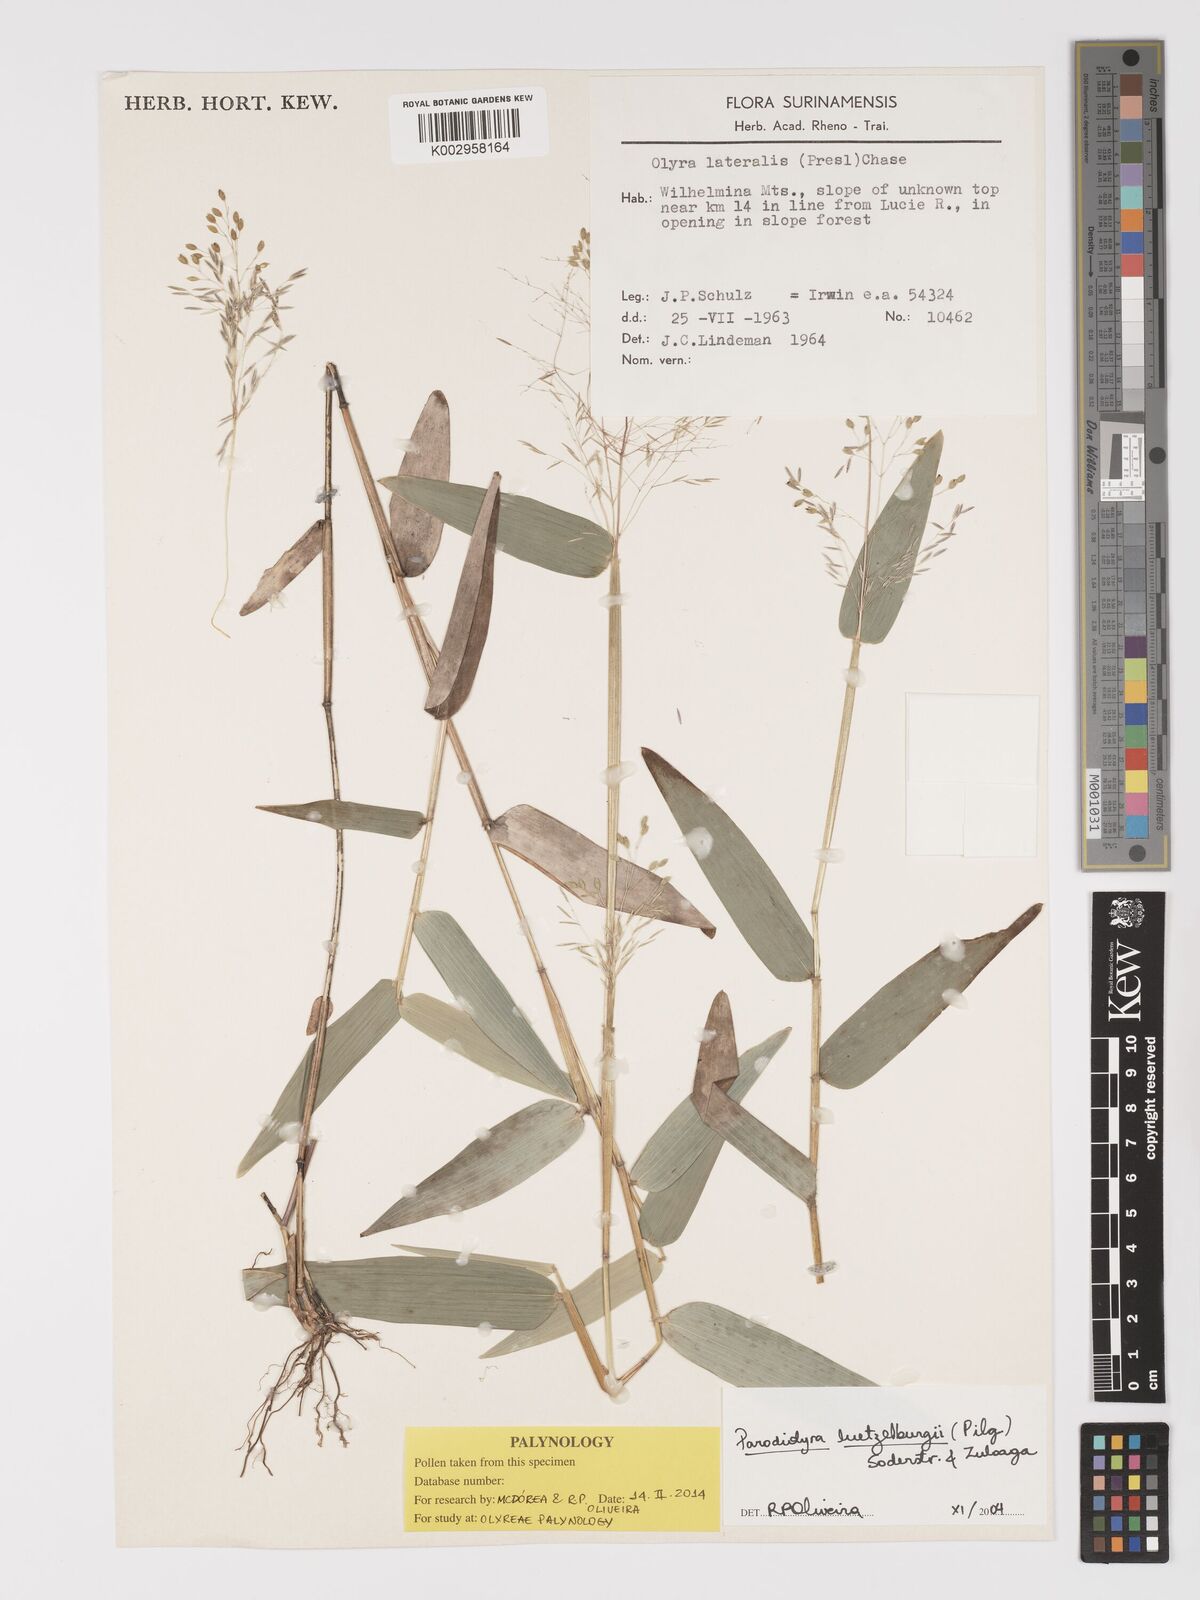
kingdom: Plantae
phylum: Tracheophyta
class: Liliopsida
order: Poales
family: Poaceae
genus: Parodiolyra
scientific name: Parodiolyra luetzelburgii
